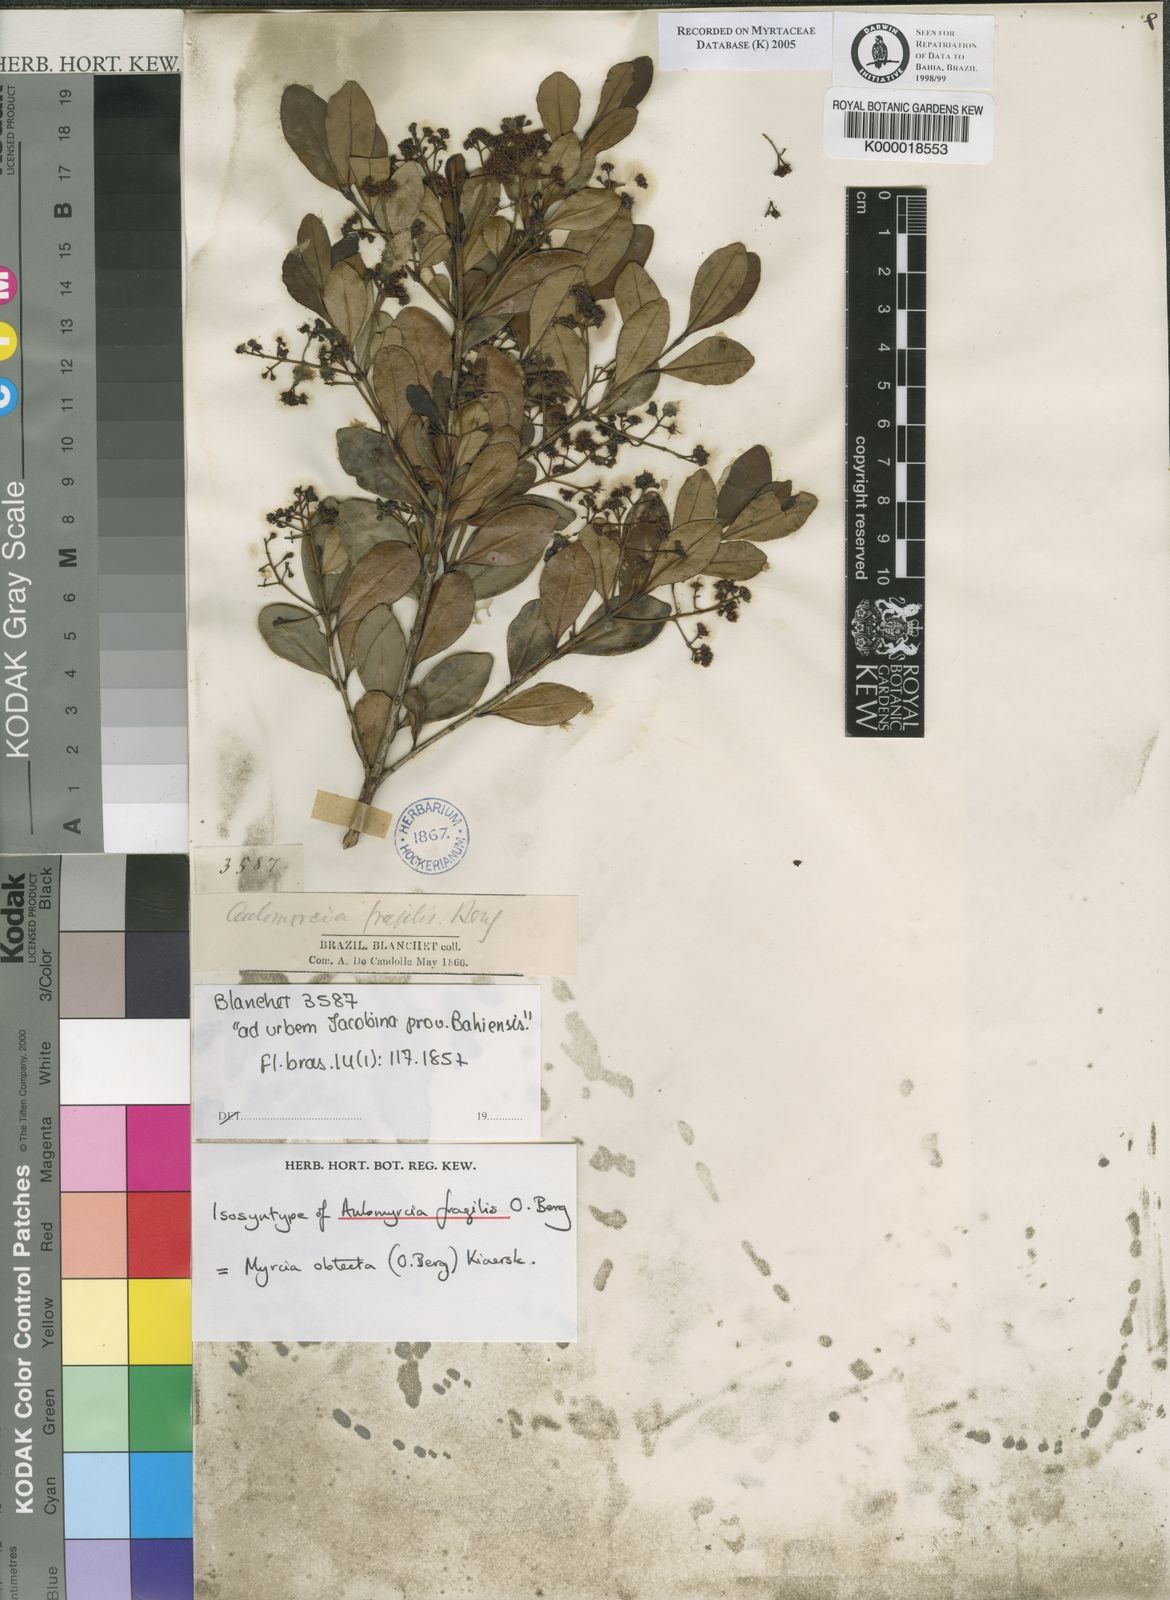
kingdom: Plantae
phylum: Tracheophyta
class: Magnoliopsida
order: Myrtales
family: Myrtaceae
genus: Myrcia
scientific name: Myrcia guianensis
